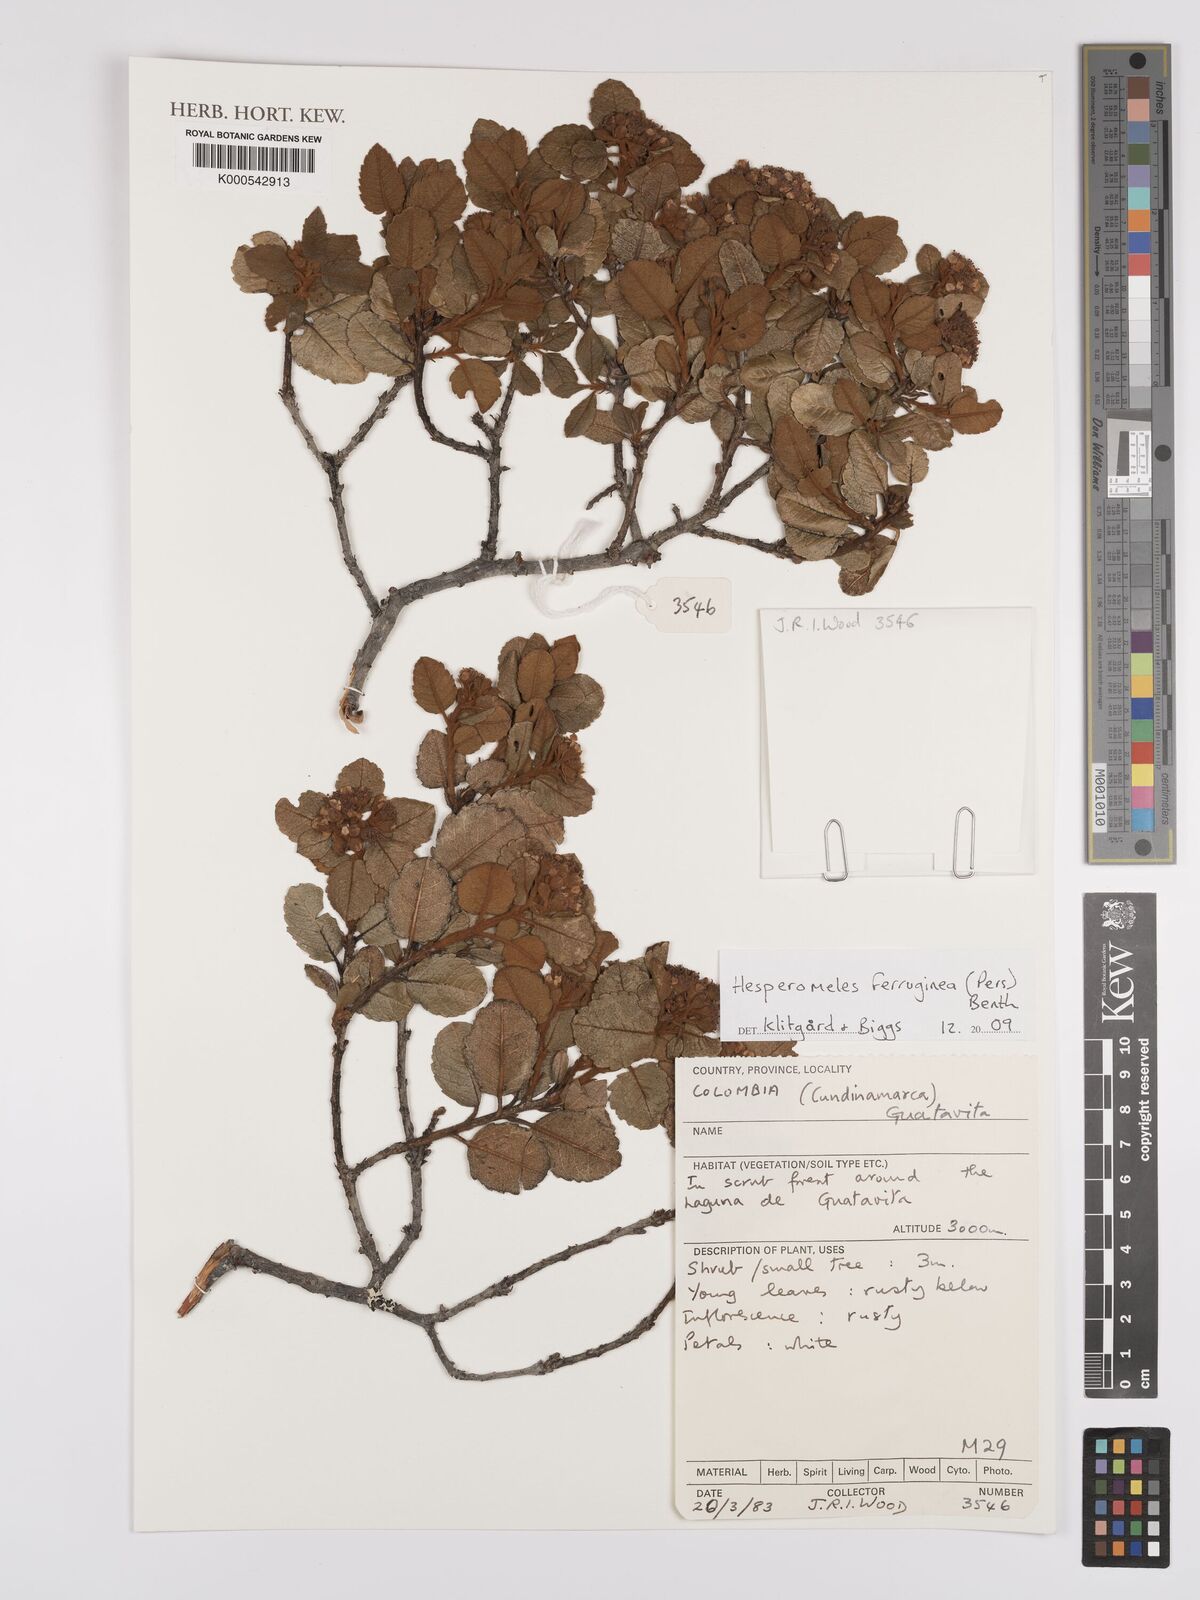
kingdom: Plantae
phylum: Tracheophyta
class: Magnoliopsida
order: Rosales
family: Rosaceae
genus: Hesperomeles
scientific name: Hesperomeles ferruginea
